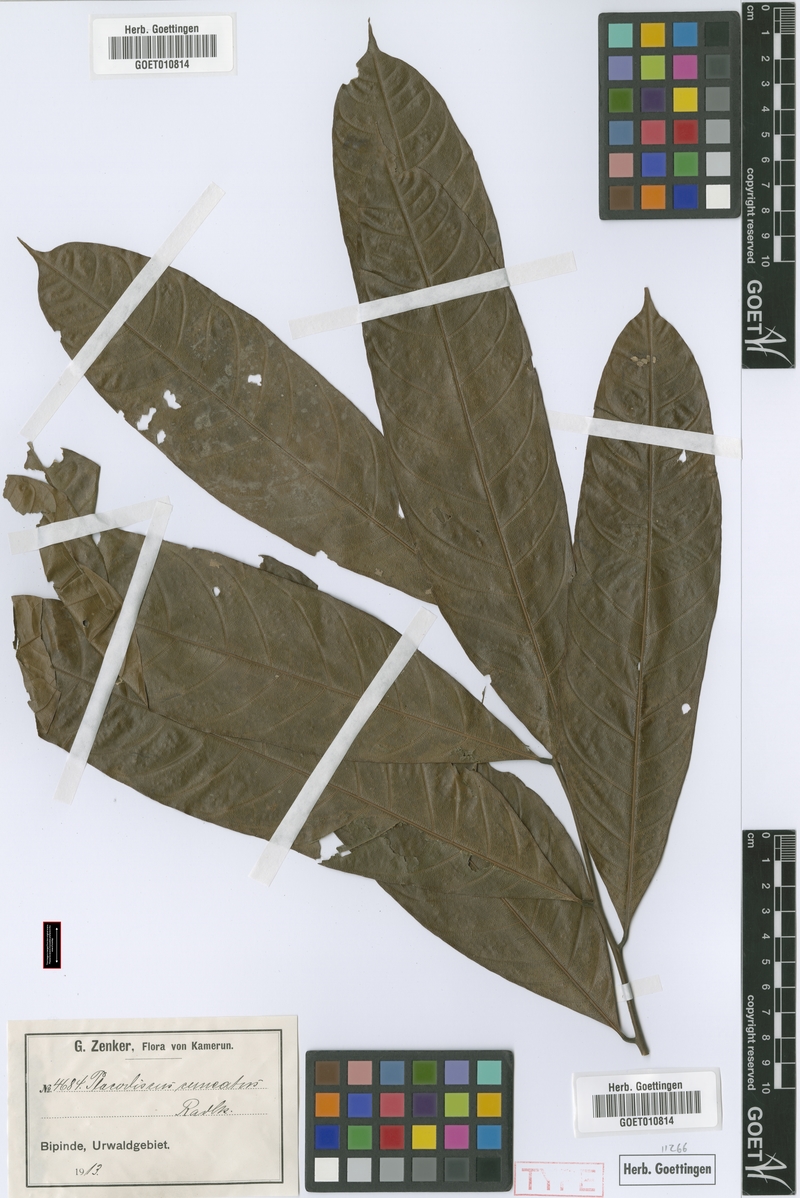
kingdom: Plantae
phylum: Tracheophyta
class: Magnoliopsida
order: Sapindales
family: Sapindaceae
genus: Placodiscus
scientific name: Placodiscus angustifolius
